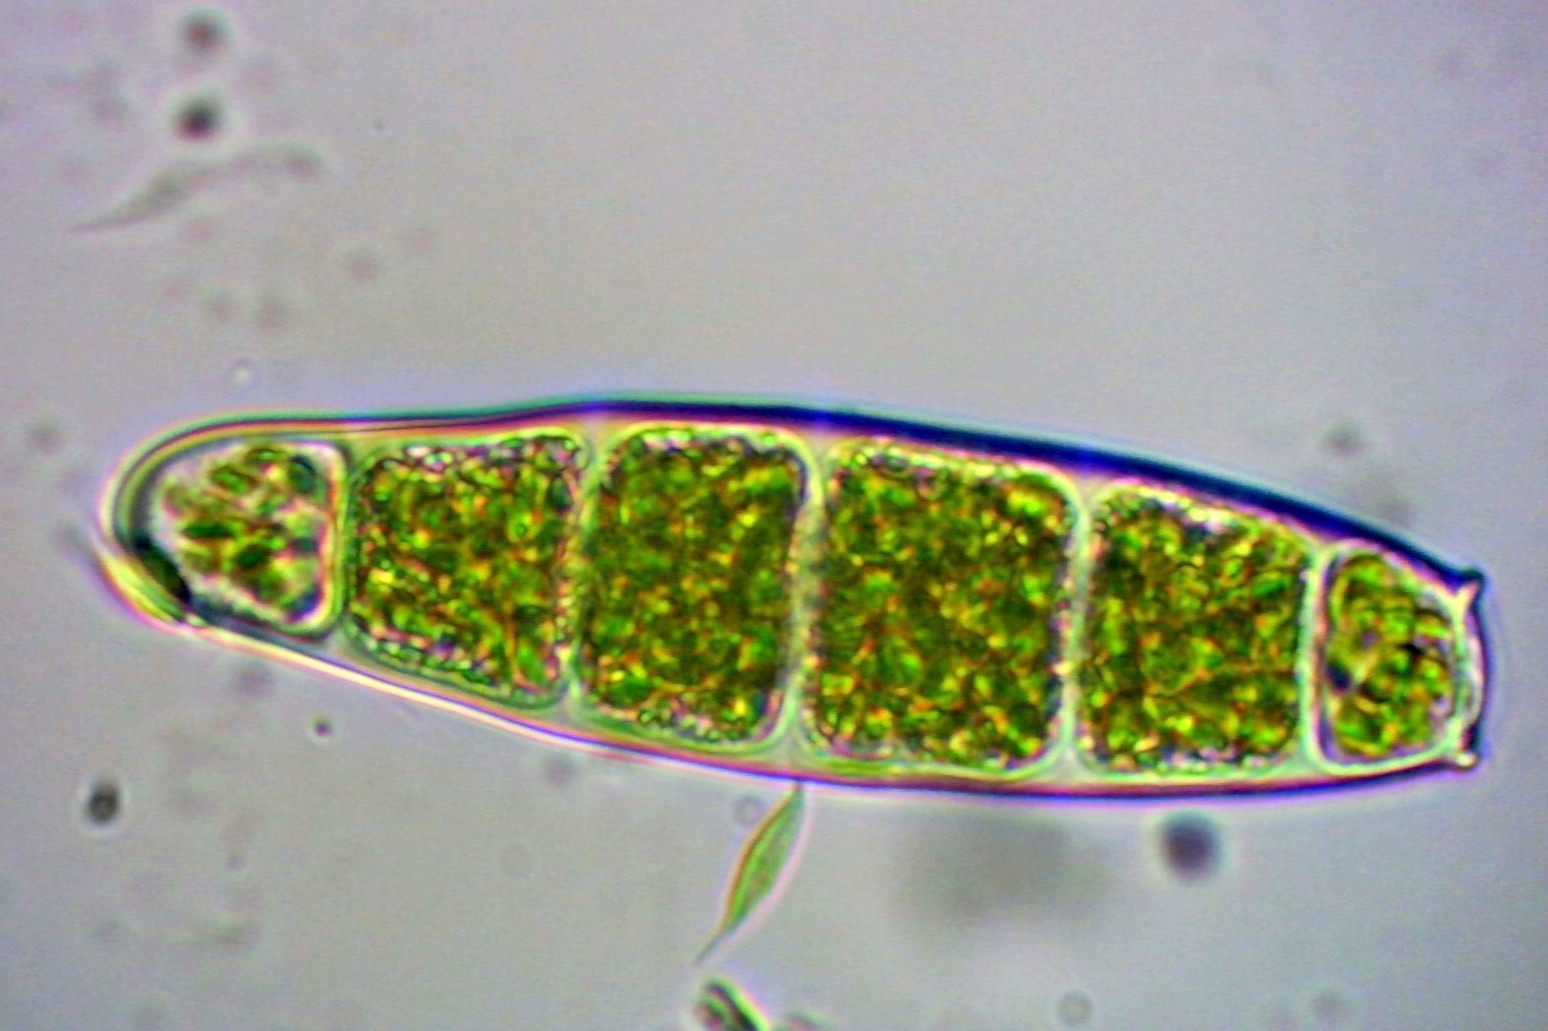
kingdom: Plantae
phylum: Bryophyta
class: Bryopsida
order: Orthotrichales
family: Orthotrichaceae
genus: Zygodon
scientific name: Zygodon conoideus
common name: Tand-køllemos
